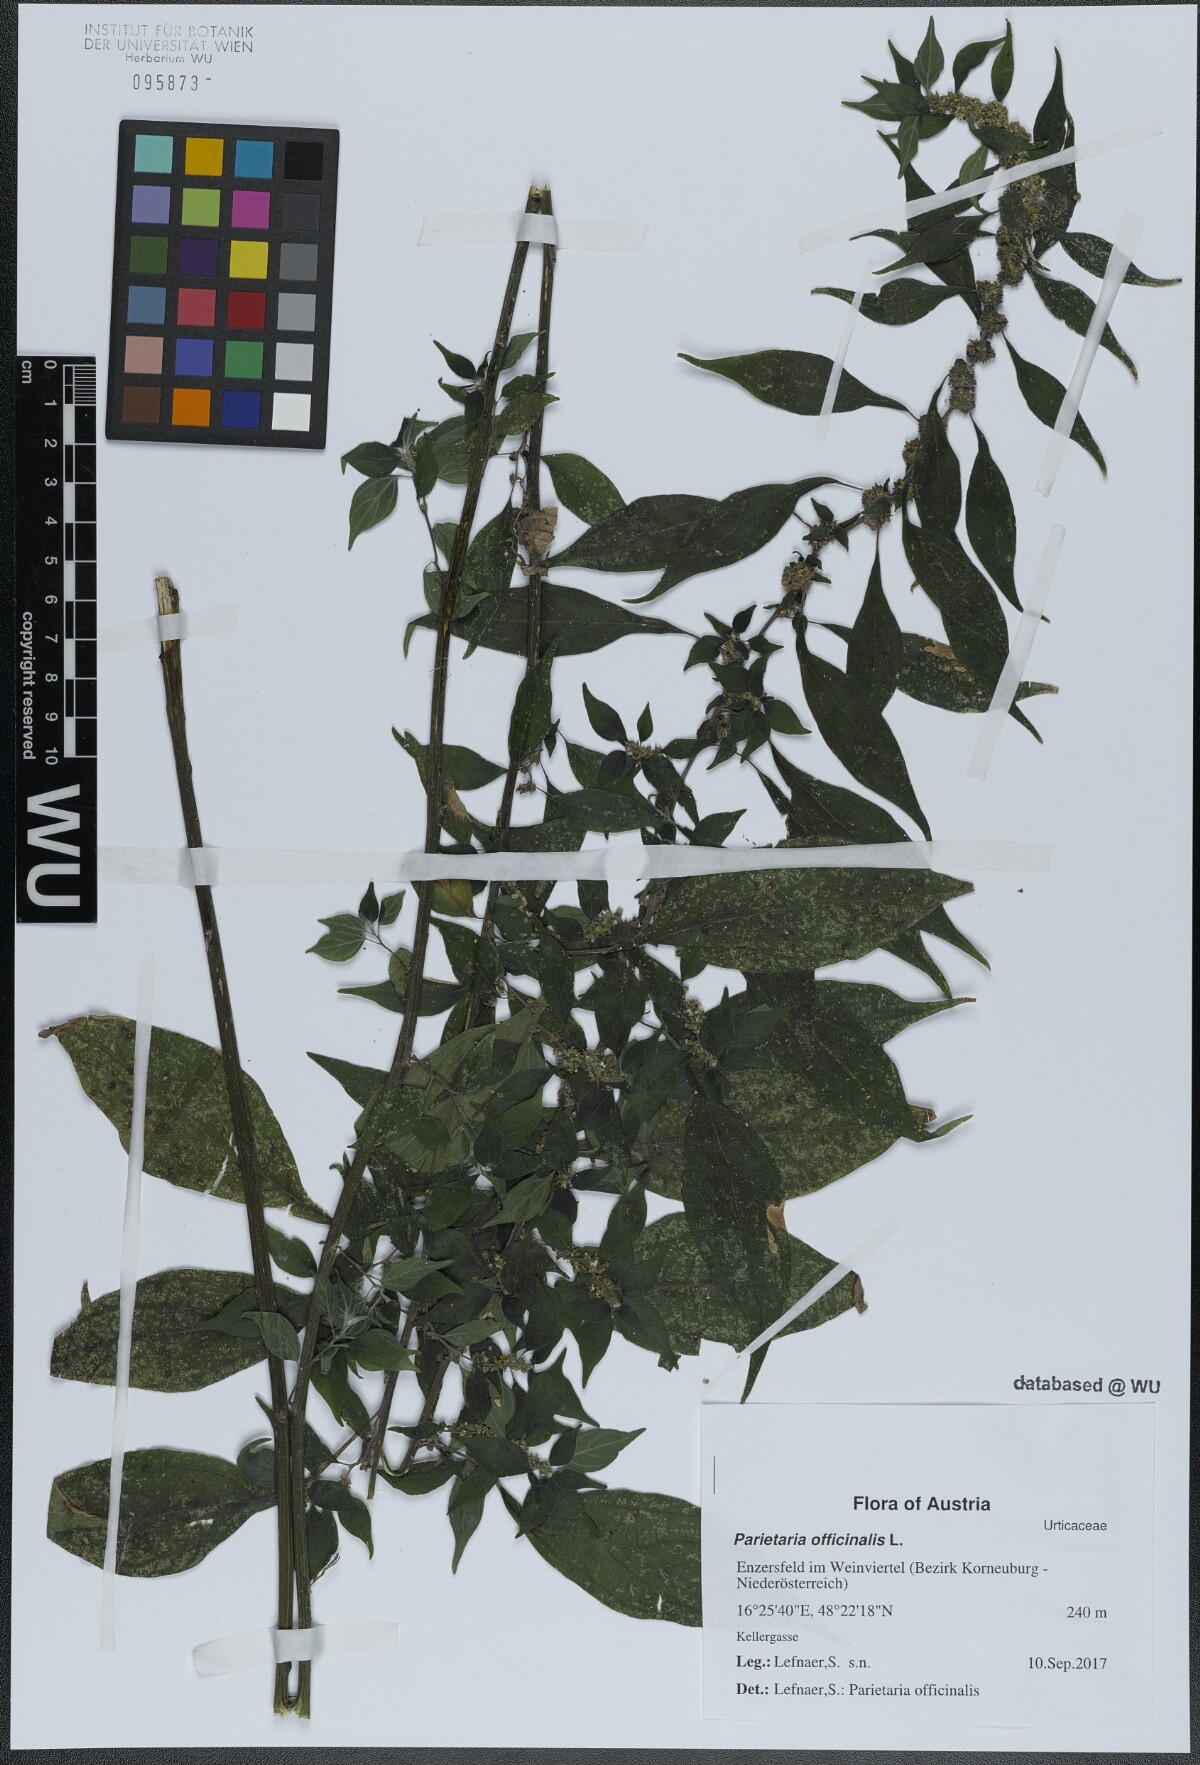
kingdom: Plantae
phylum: Tracheophyta
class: Magnoliopsida
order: Rosales
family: Urticaceae
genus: Parietaria
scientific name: Parietaria officinalis
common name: Eastern pellitory-of-the-wall
